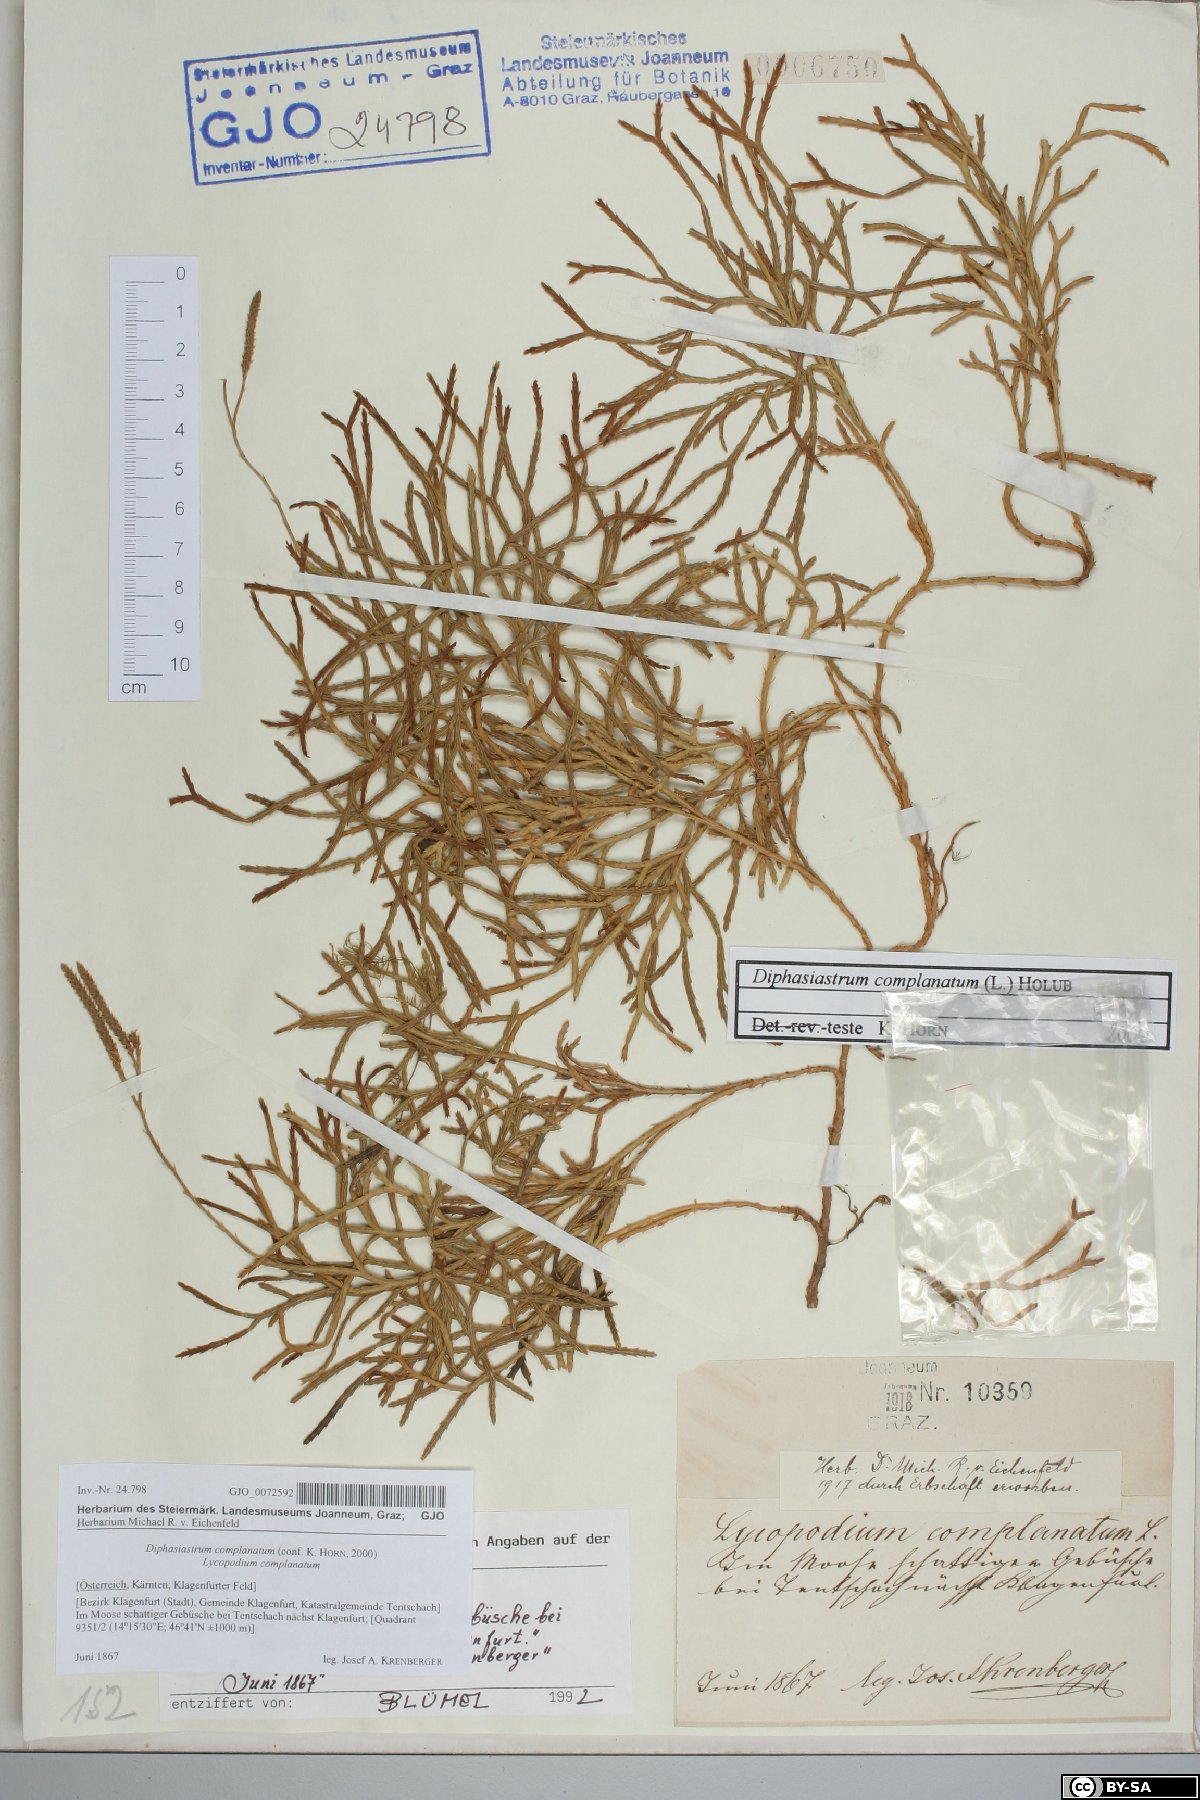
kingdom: Plantae
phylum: Tracheophyta
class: Lycopodiopsida
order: Lycopodiales
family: Lycopodiaceae
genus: Diphasiastrum
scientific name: Diphasiastrum complanatum
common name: Northern running-pine
